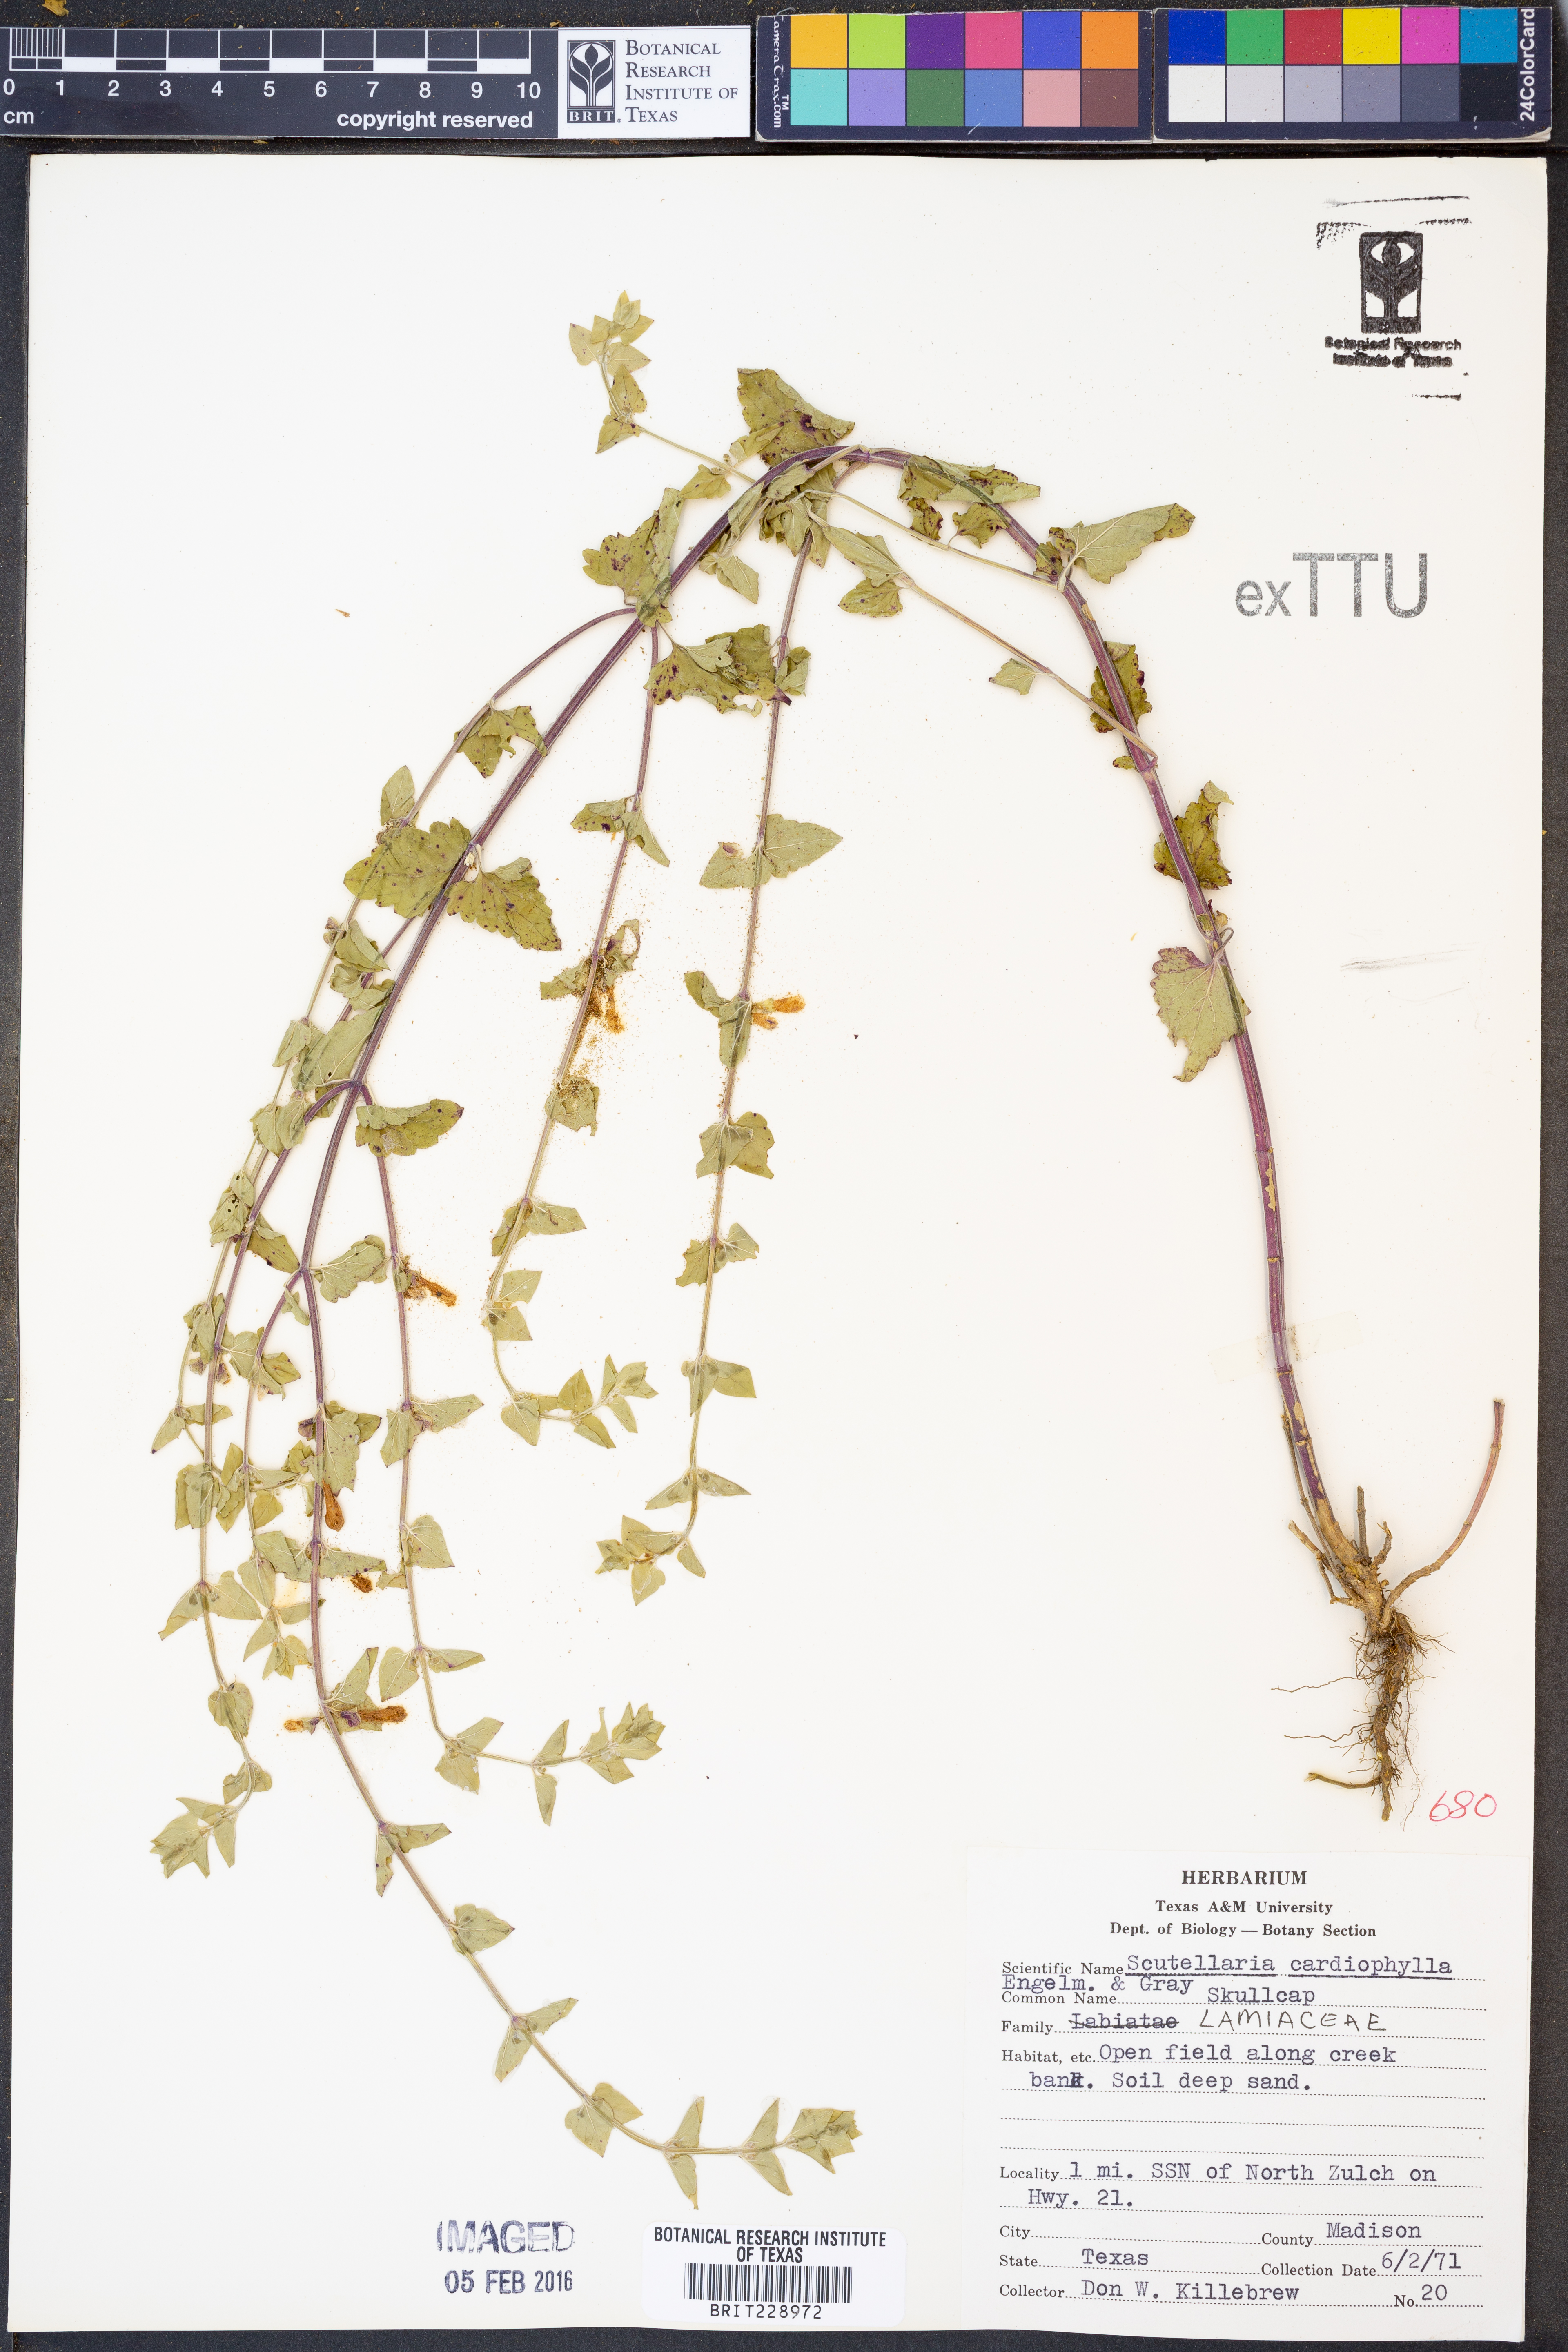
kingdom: Plantae
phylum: Tracheophyta
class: Magnoliopsida
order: Lamiales
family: Lamiaceae
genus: Scutellaria
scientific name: Scutellaria cardiophylla
